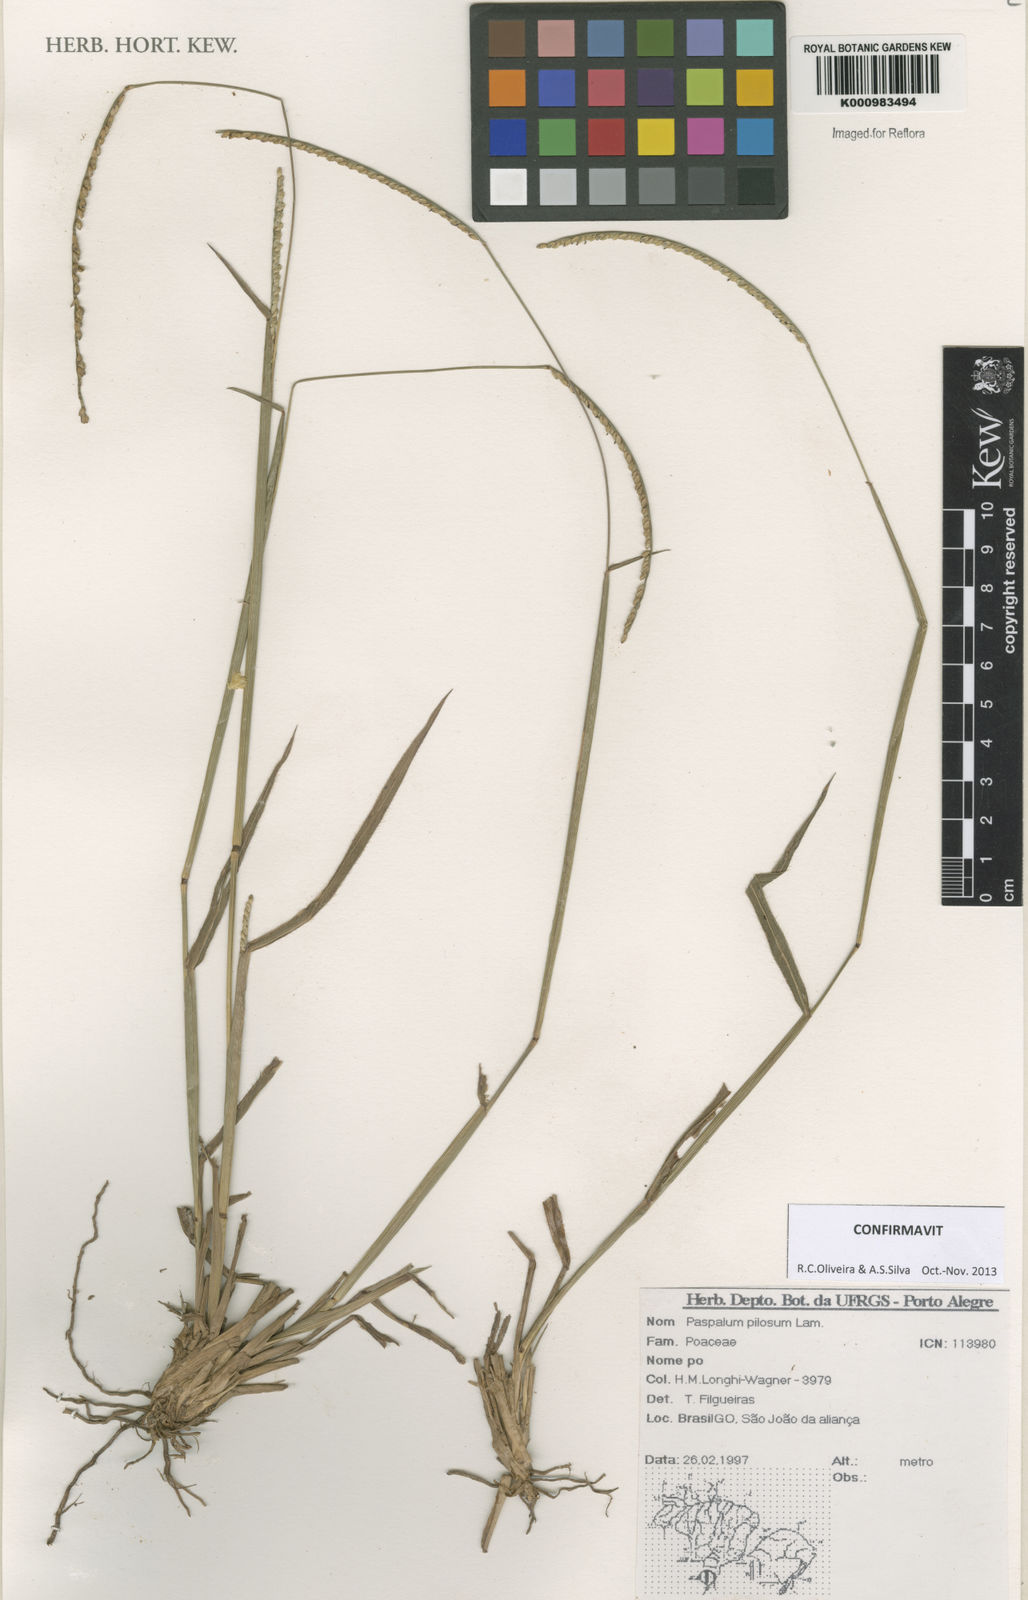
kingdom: Plantae
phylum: Tracheophyta
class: Liliopsida
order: Poales
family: Poaceae
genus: Paspalum
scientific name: Paspalum pilosum
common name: Crowngrass
